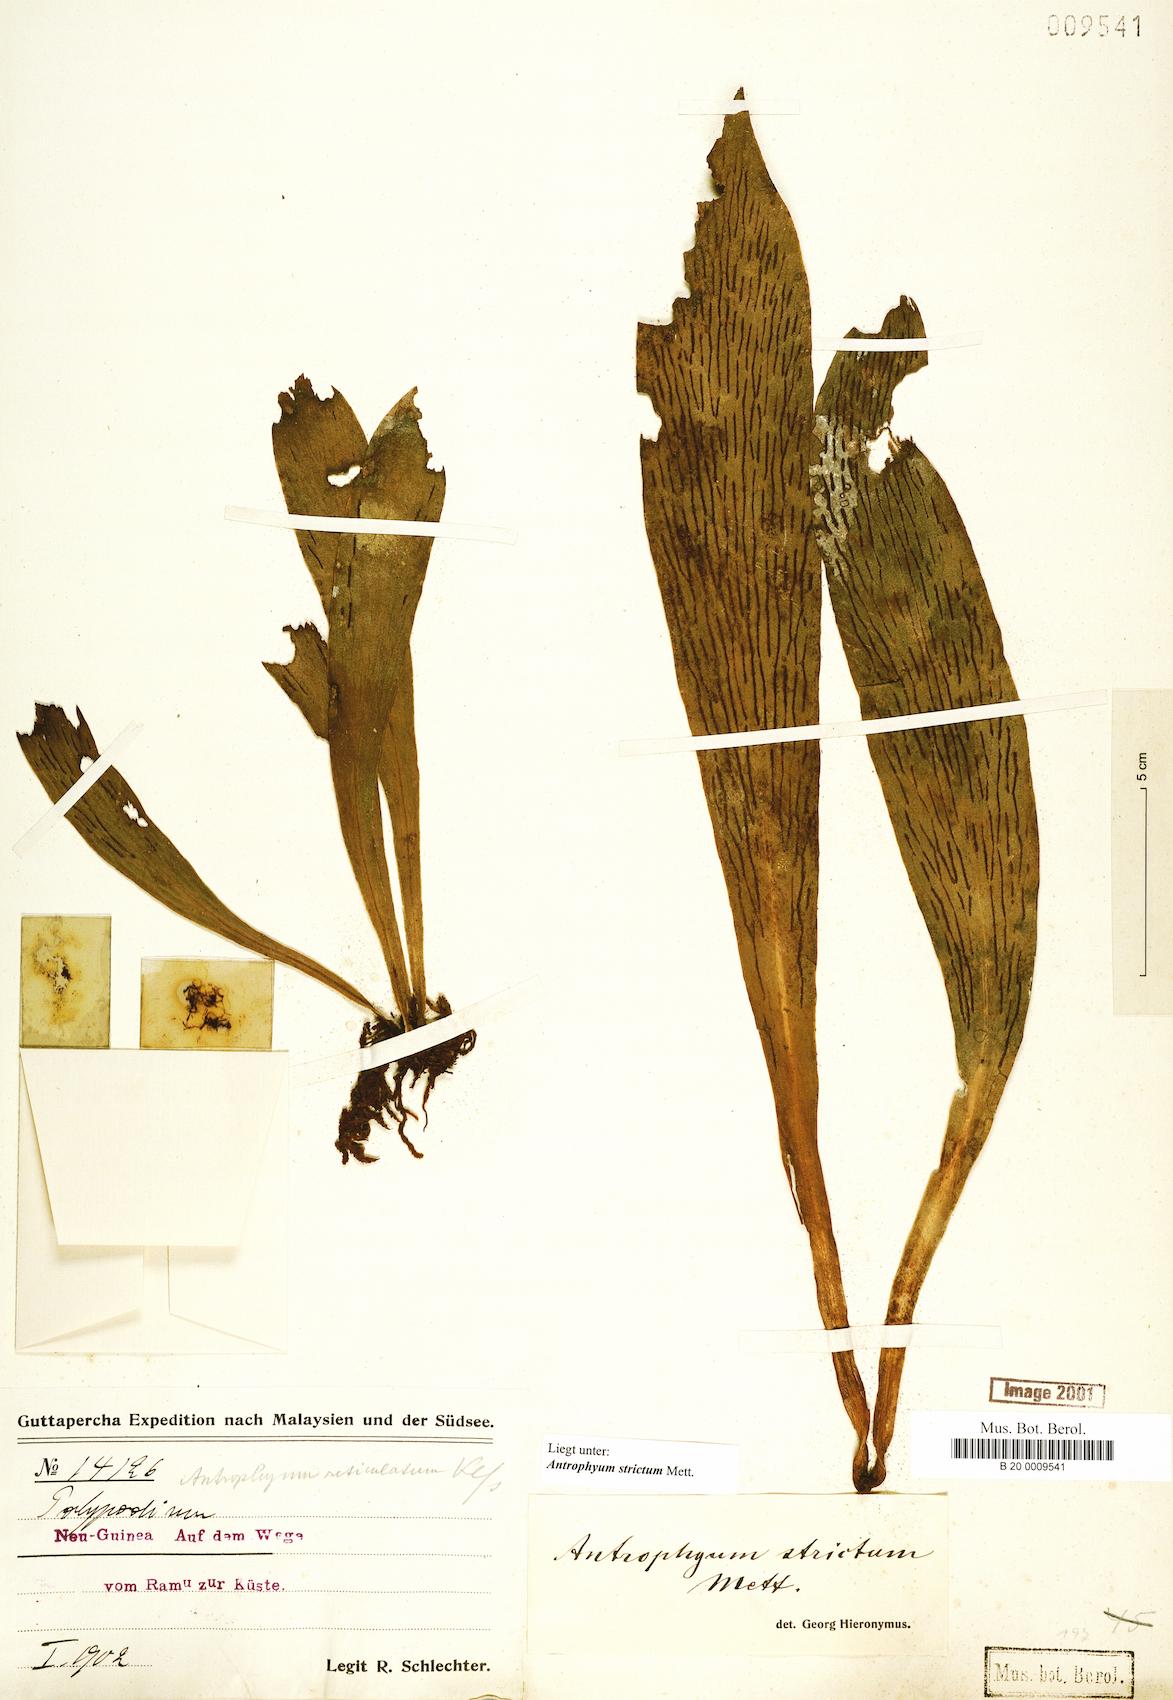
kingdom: Plantae
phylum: Tracheophyta
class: Polypodiopsida
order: Polypodiales
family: Pteridaceae
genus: Antrophyum
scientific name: Antrophyum strictum
